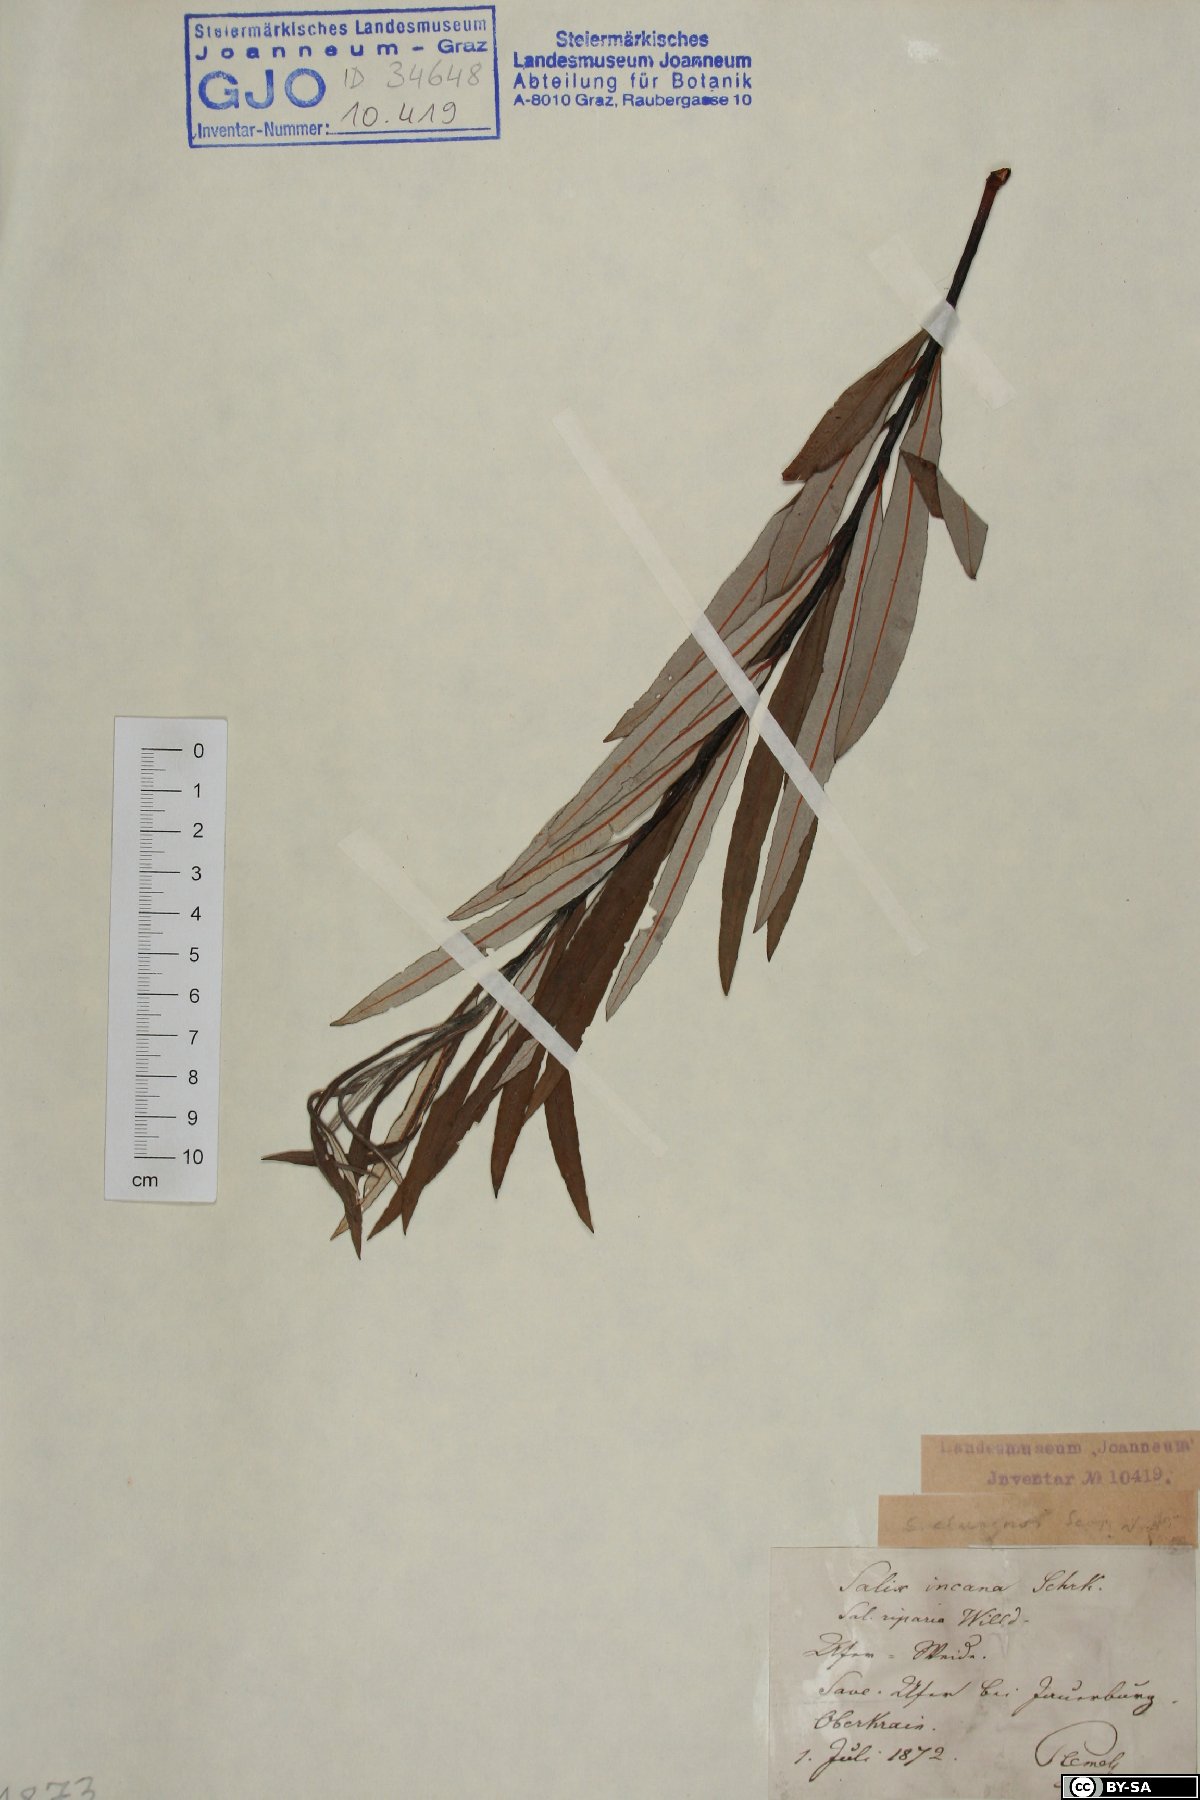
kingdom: Plantae
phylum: Tracheophyta
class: Magnoliopsida
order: Malpighiales
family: Salicaceae
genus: Salix
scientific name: Salix eleagnos
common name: Elaeagnus willow
